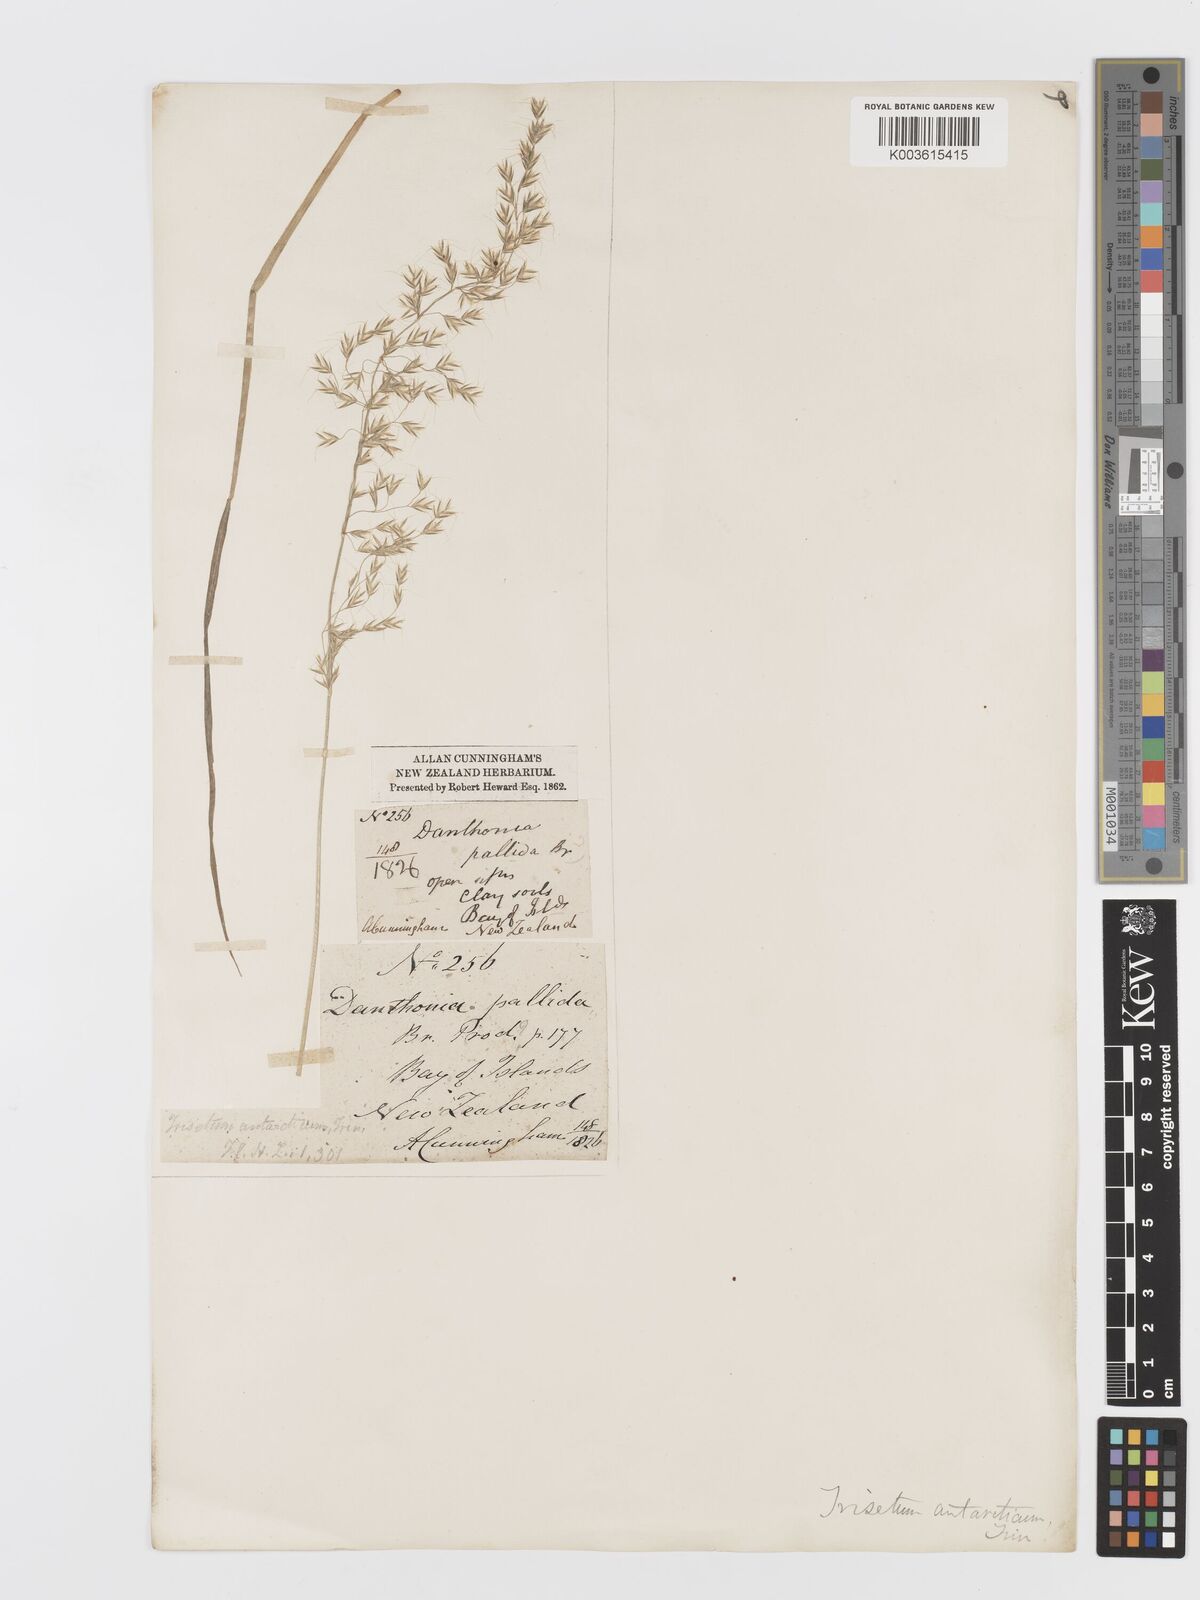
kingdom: Plantae
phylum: Tracheophyta
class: Liliopsida
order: Poales
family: Poaceae
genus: Koeleria
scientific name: Koeleria antarctica
